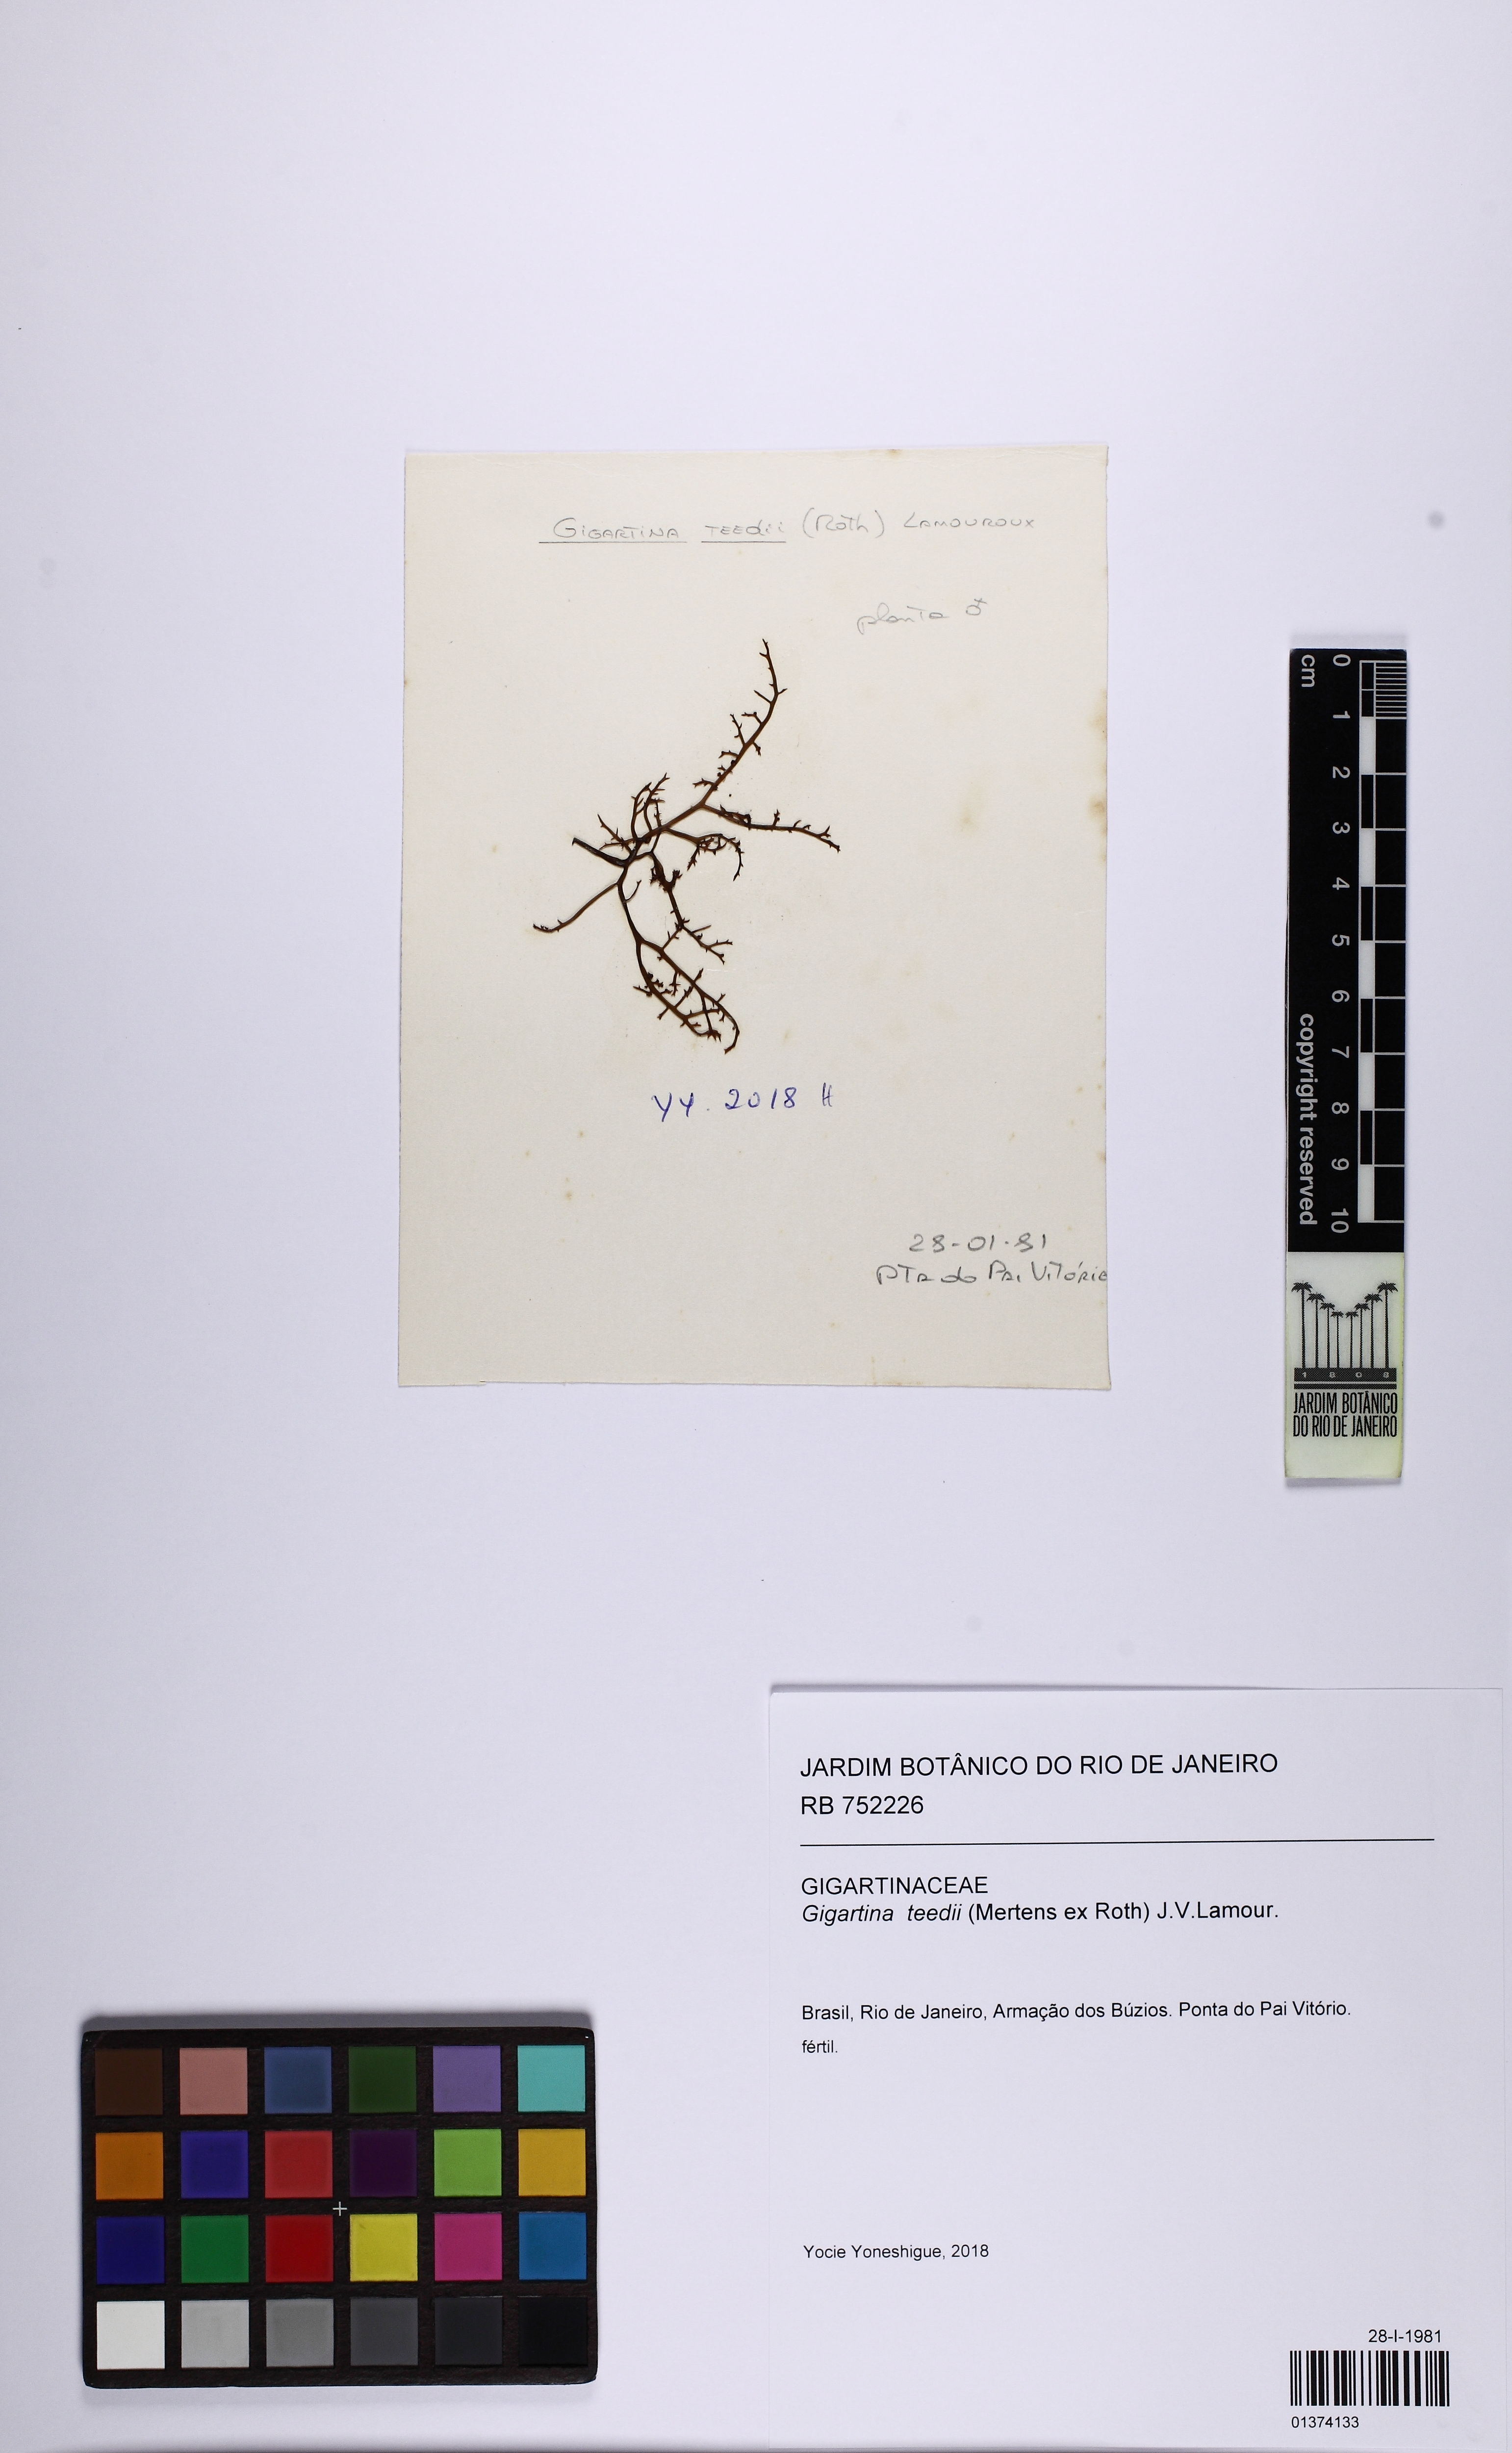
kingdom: Plantae
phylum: Rhodophyta
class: Florideophyceae
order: Gigartinales
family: Gigartinaceae
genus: Chondracanthus
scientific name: Chondracanthus teedei
